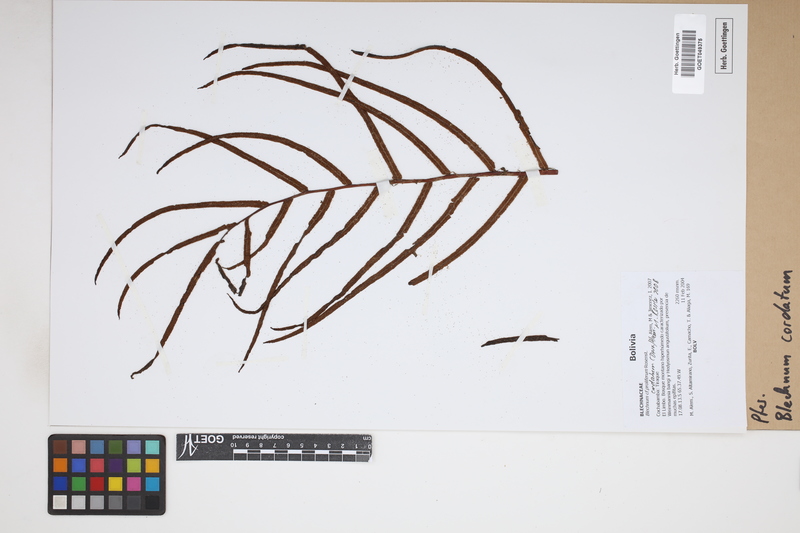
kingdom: Plantae
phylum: Tracheophyta
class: Polypodiopsida
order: Polypodiales
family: Blechnaceae
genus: Parablechnum
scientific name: Parablechnum cordatum
